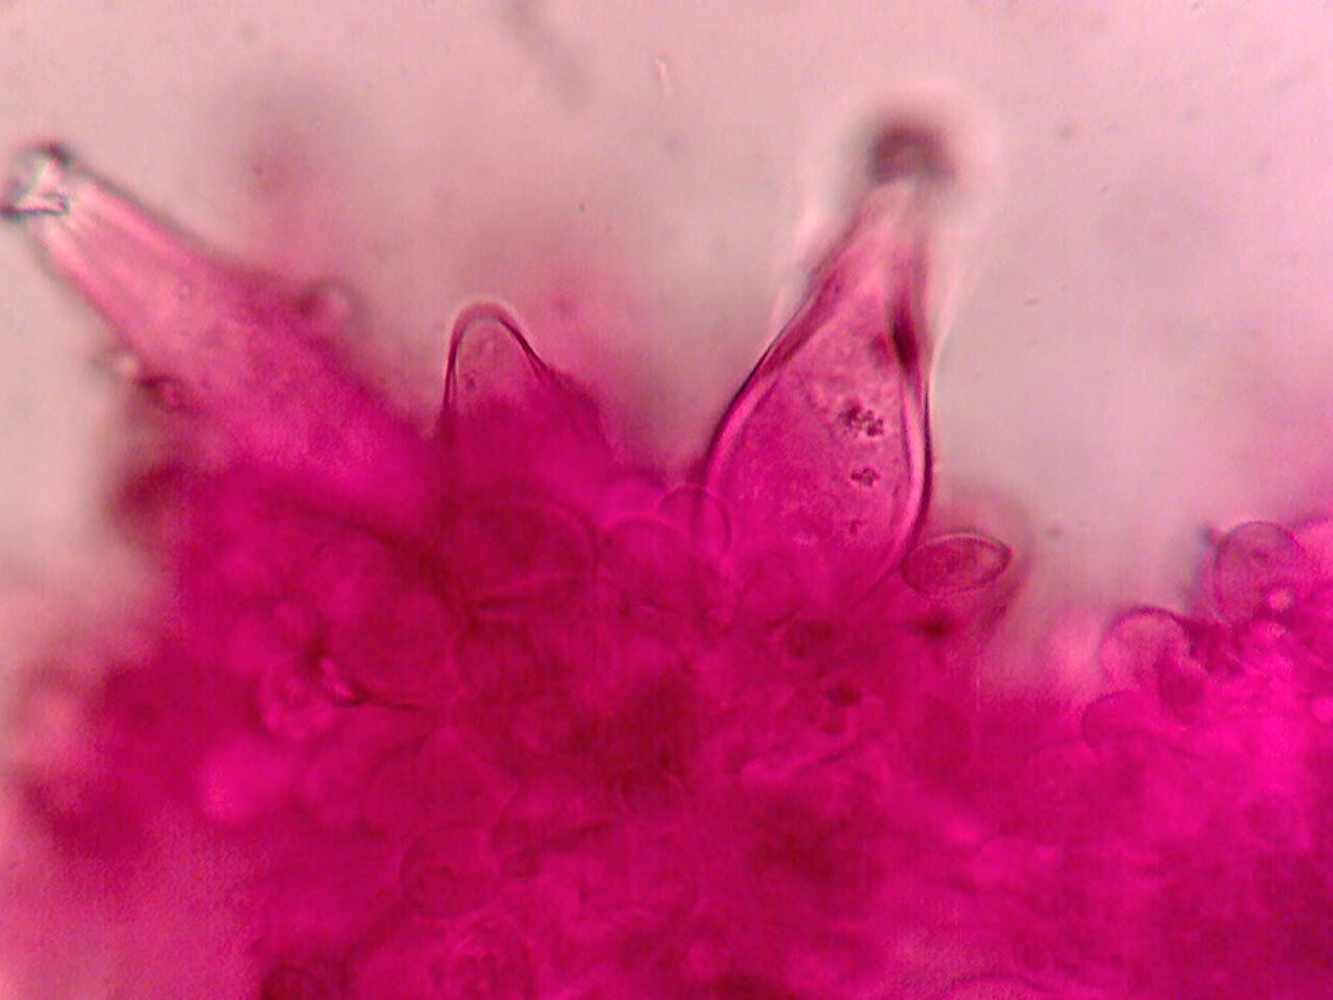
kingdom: Fungi
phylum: Basidiomycota
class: Agaricomycetes
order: Agaricales
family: Inocybaceae
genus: Inocybe
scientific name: Inocybe phaeoleuca
